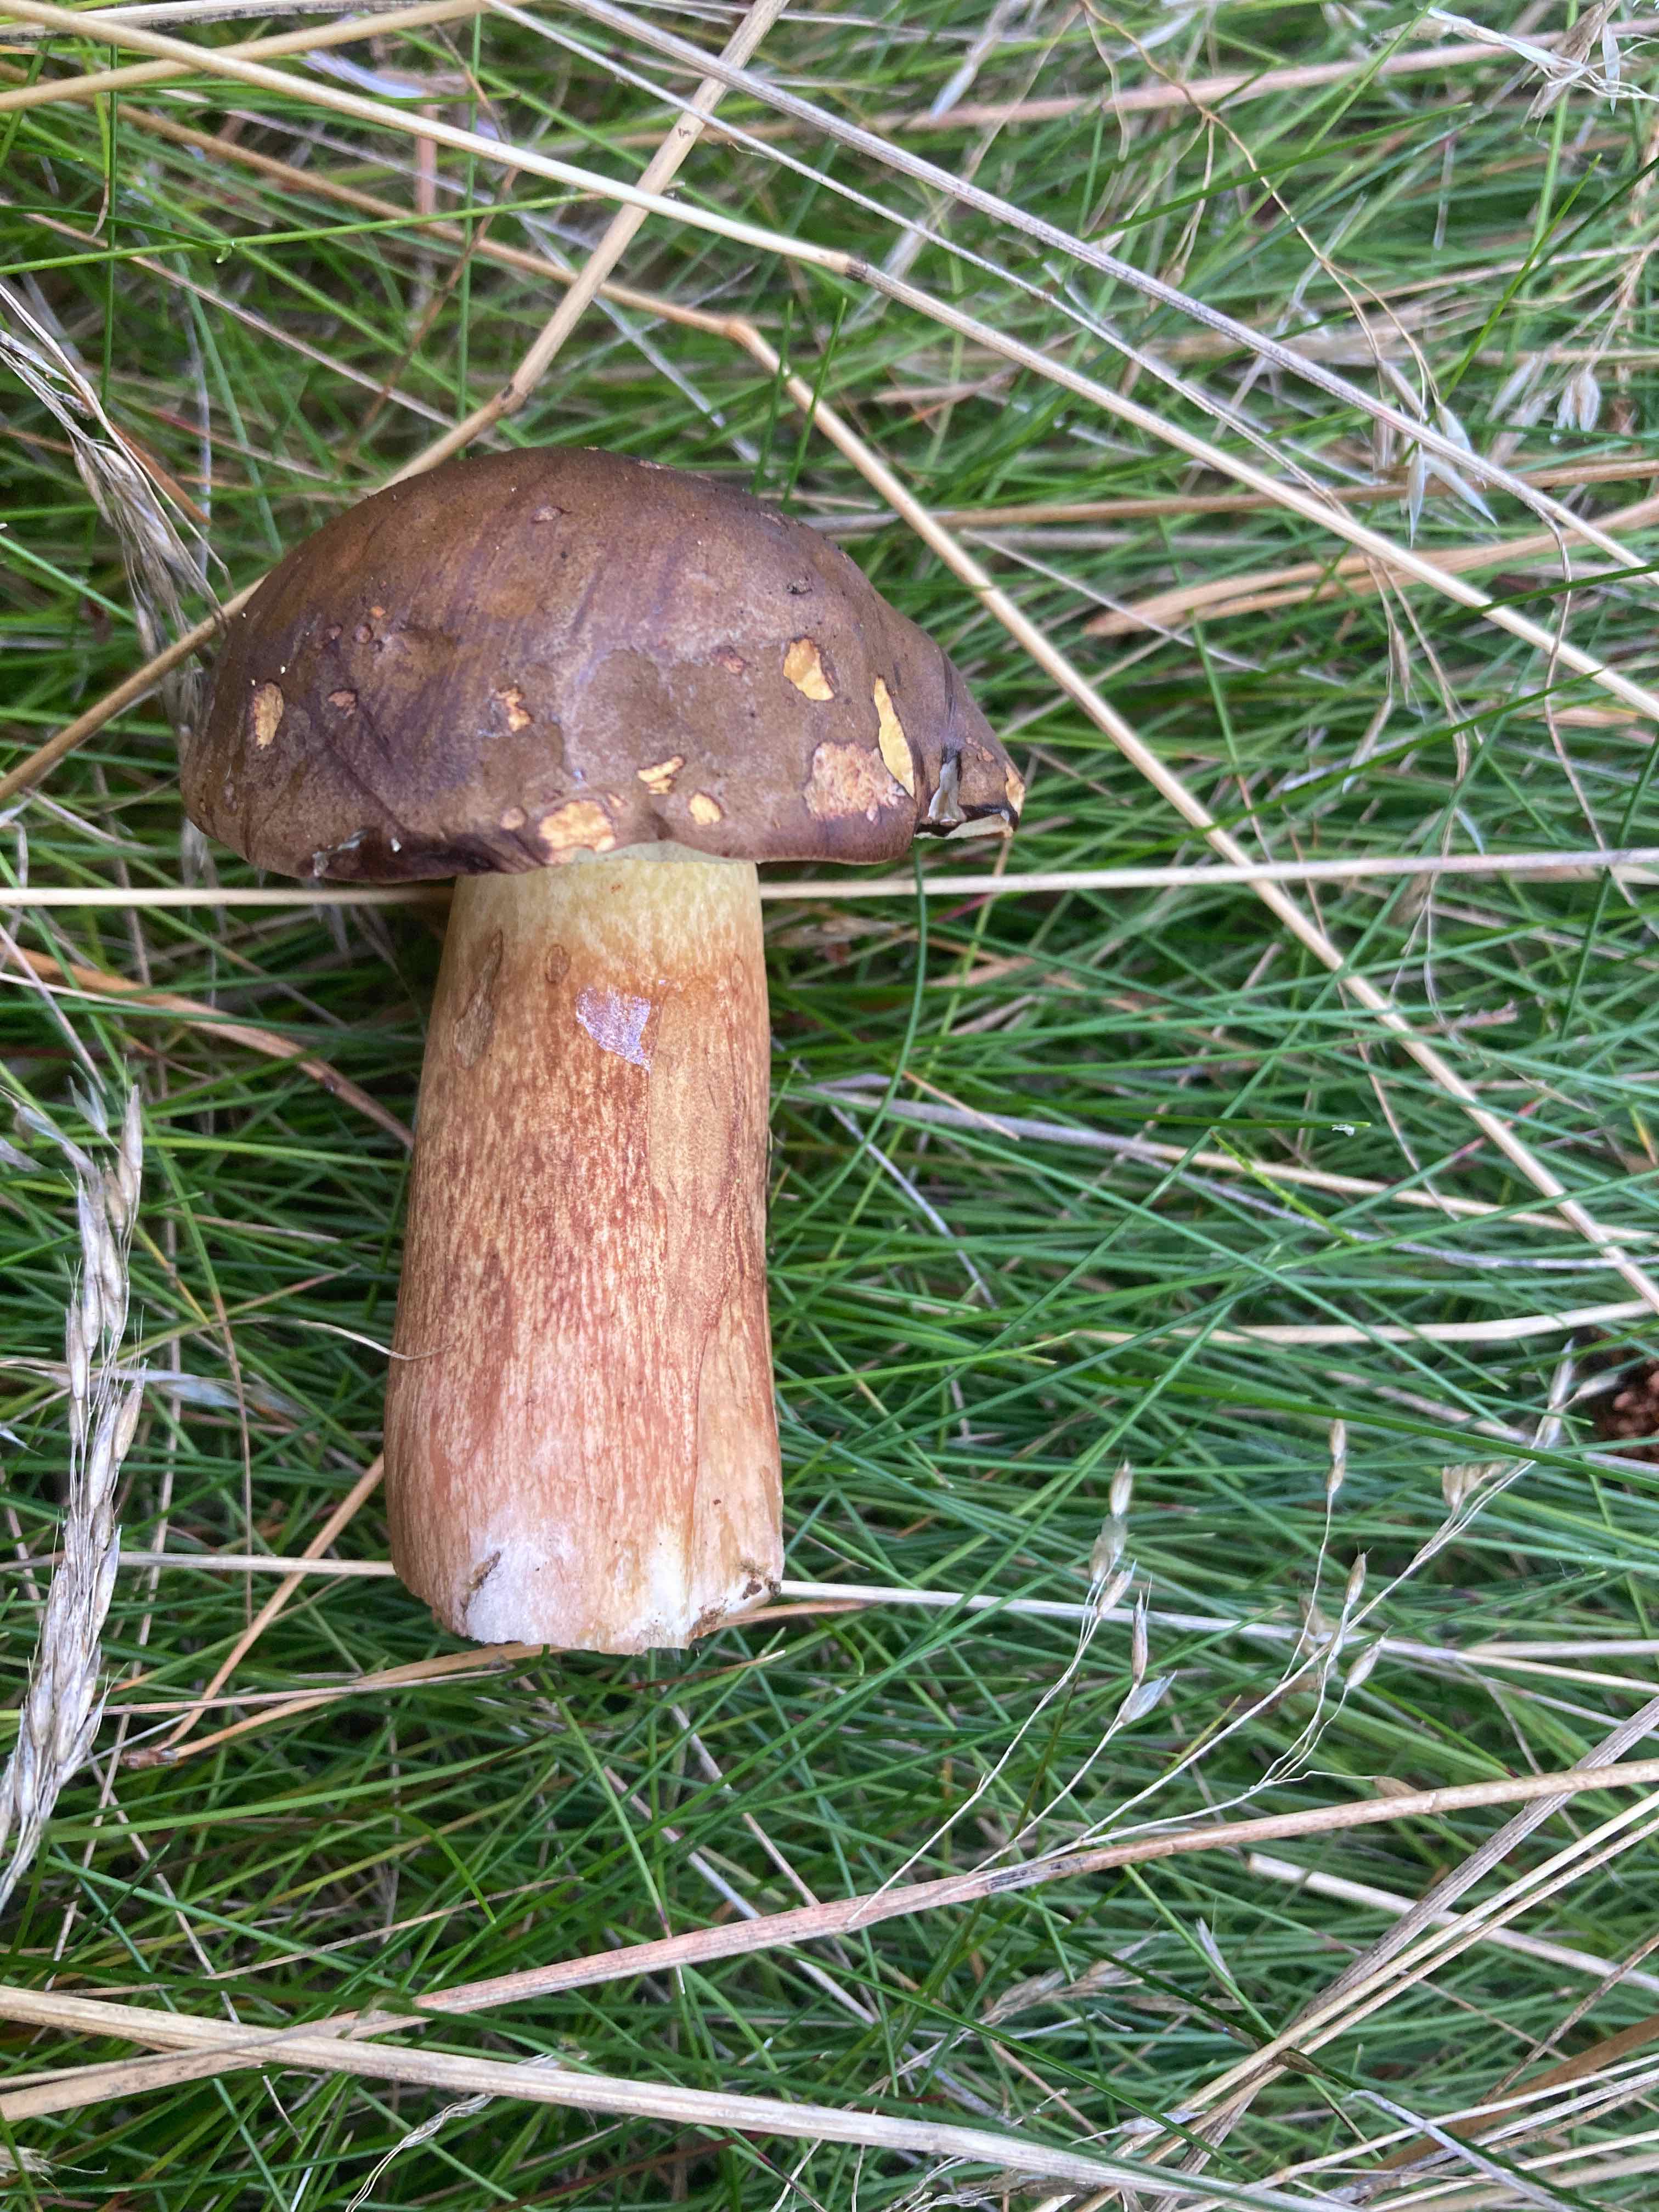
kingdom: Fungi
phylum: Basidiomycota
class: Agaricomycetes
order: Boletales
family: Boletaceae
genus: Imleria
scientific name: Imleria badia
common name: brunstokket rørhat
